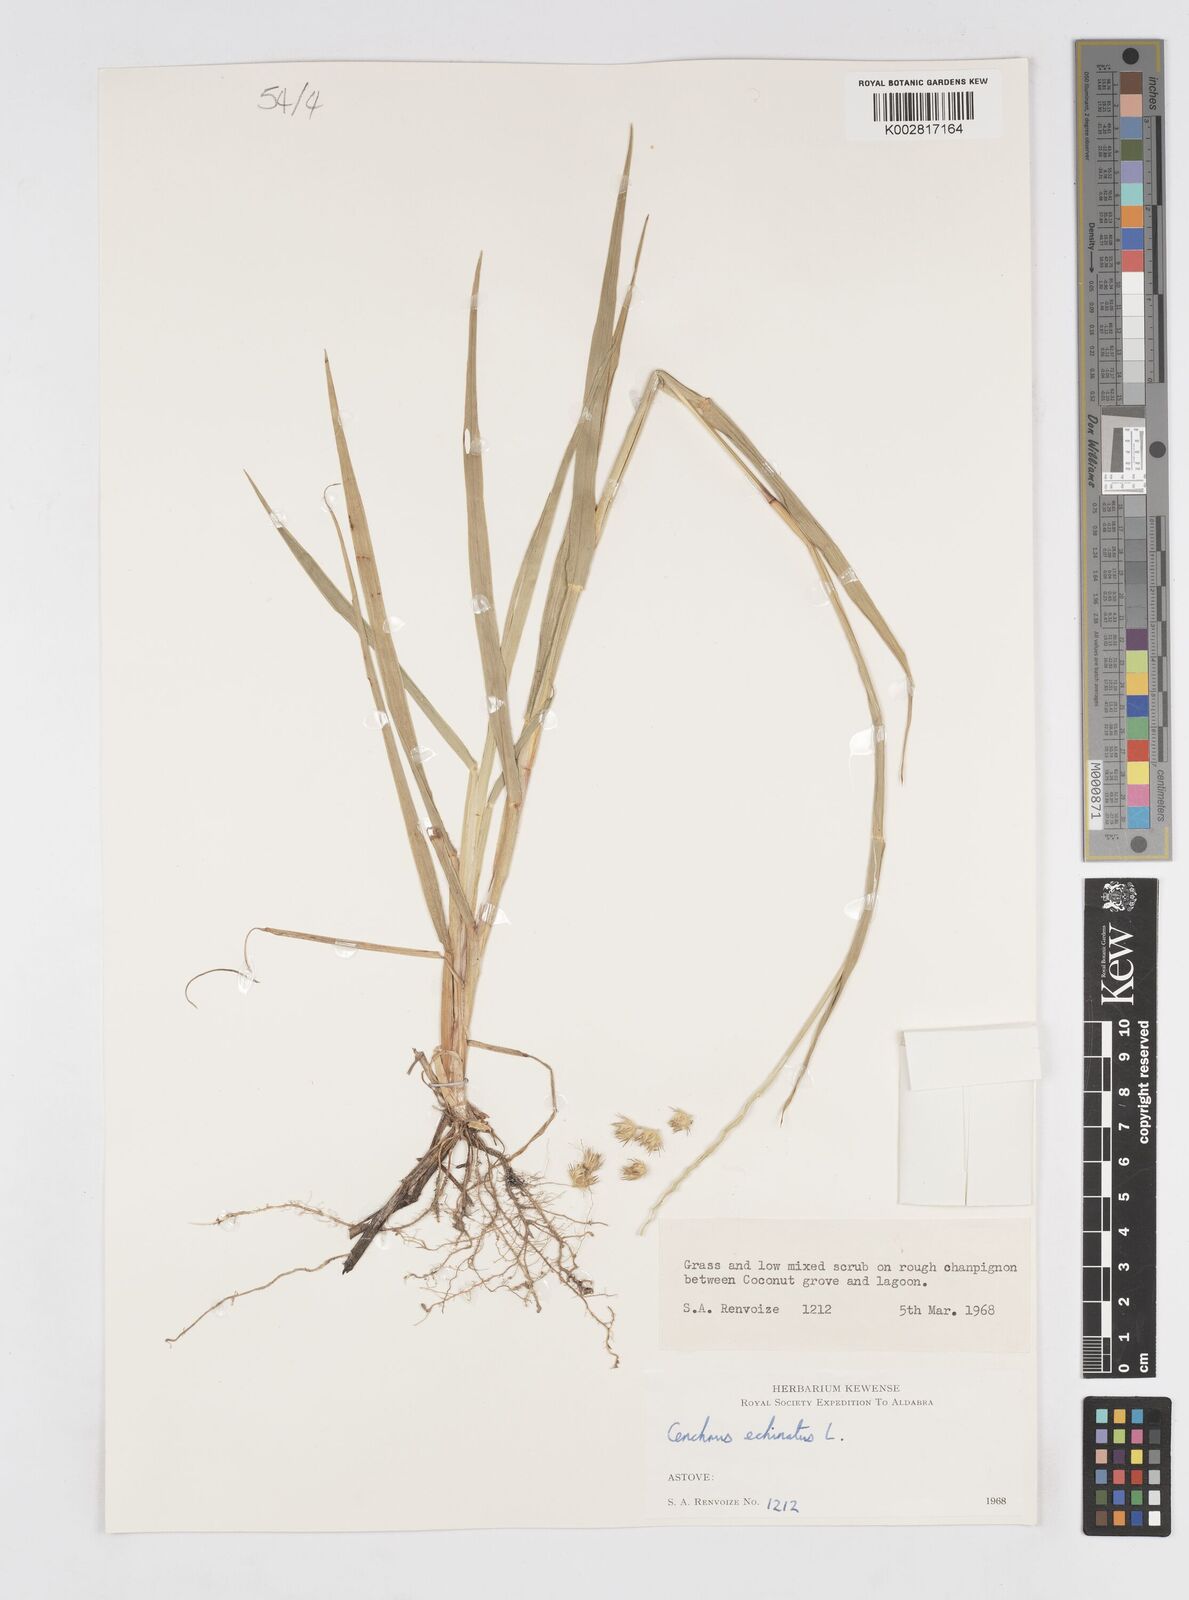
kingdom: Plantae
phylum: Tracheophyta
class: Liliopsida
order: Poales
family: Poaceae
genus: Cenchrus
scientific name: Cenchrus echinatus
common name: Southern sandbur
